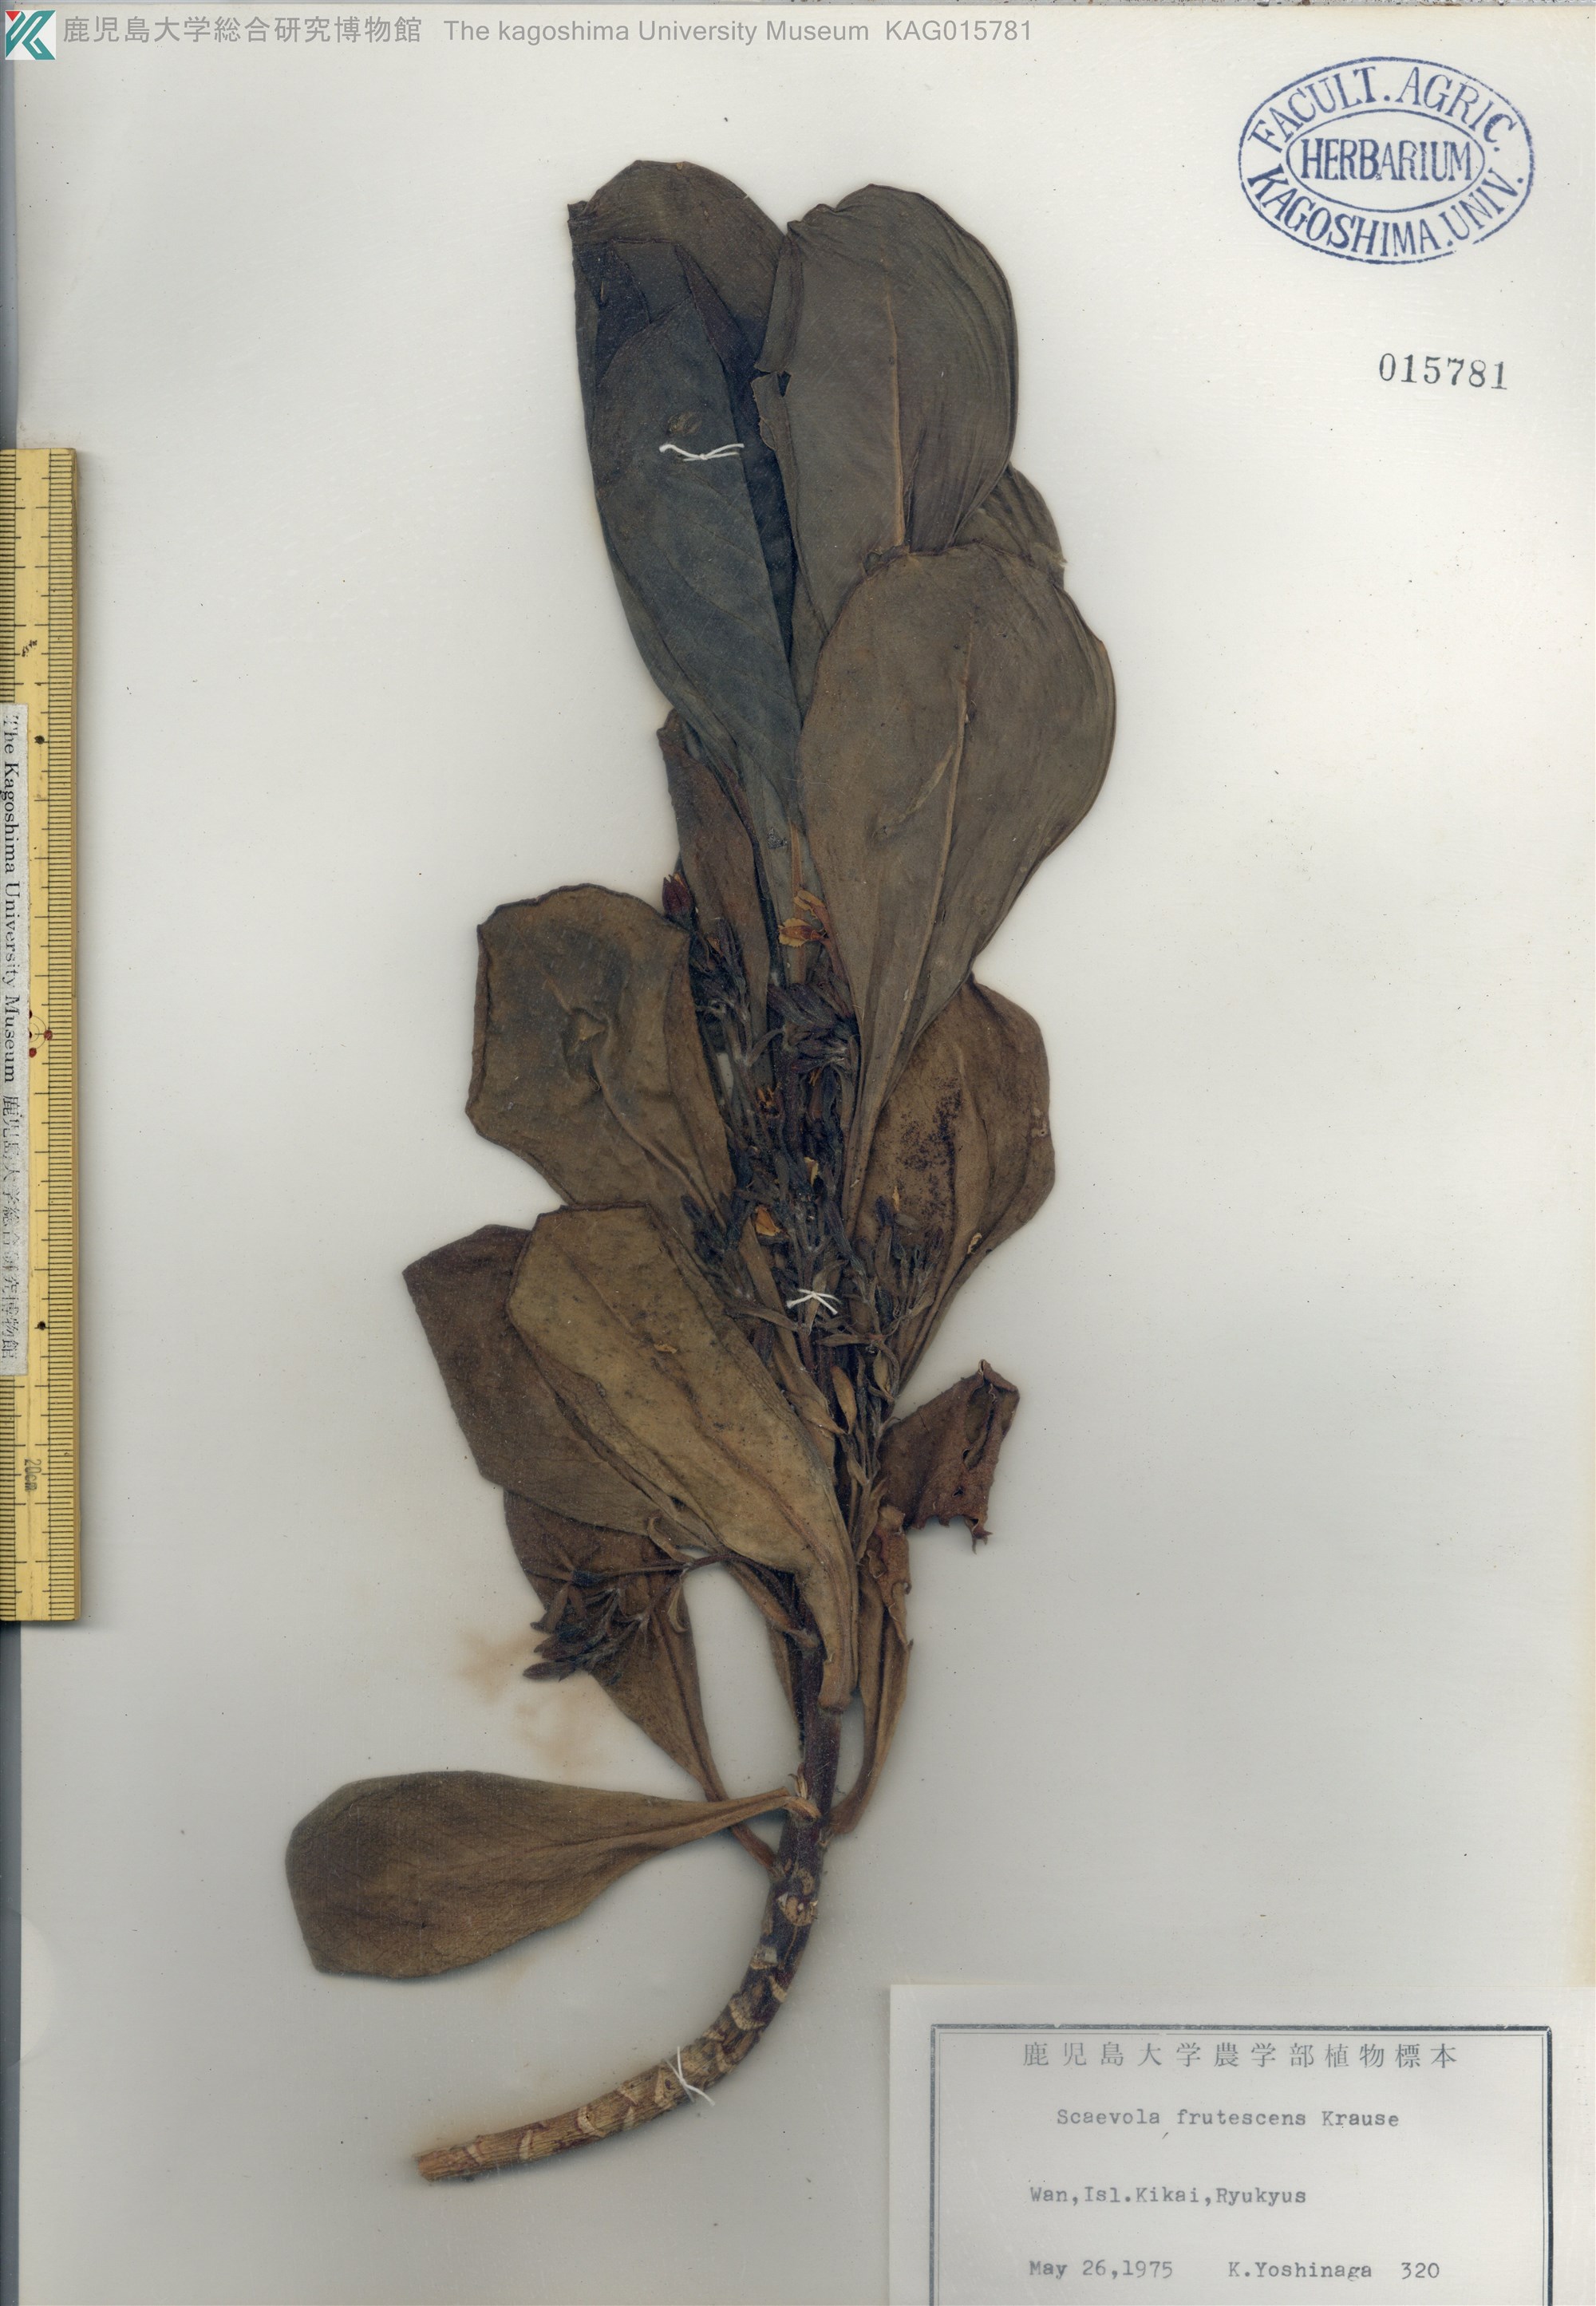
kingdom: Plantae
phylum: Tracheophyta
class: Magnoliopsida
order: Asterales
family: Goodeniaceae
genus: Scaevola
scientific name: Scaevola taccada
